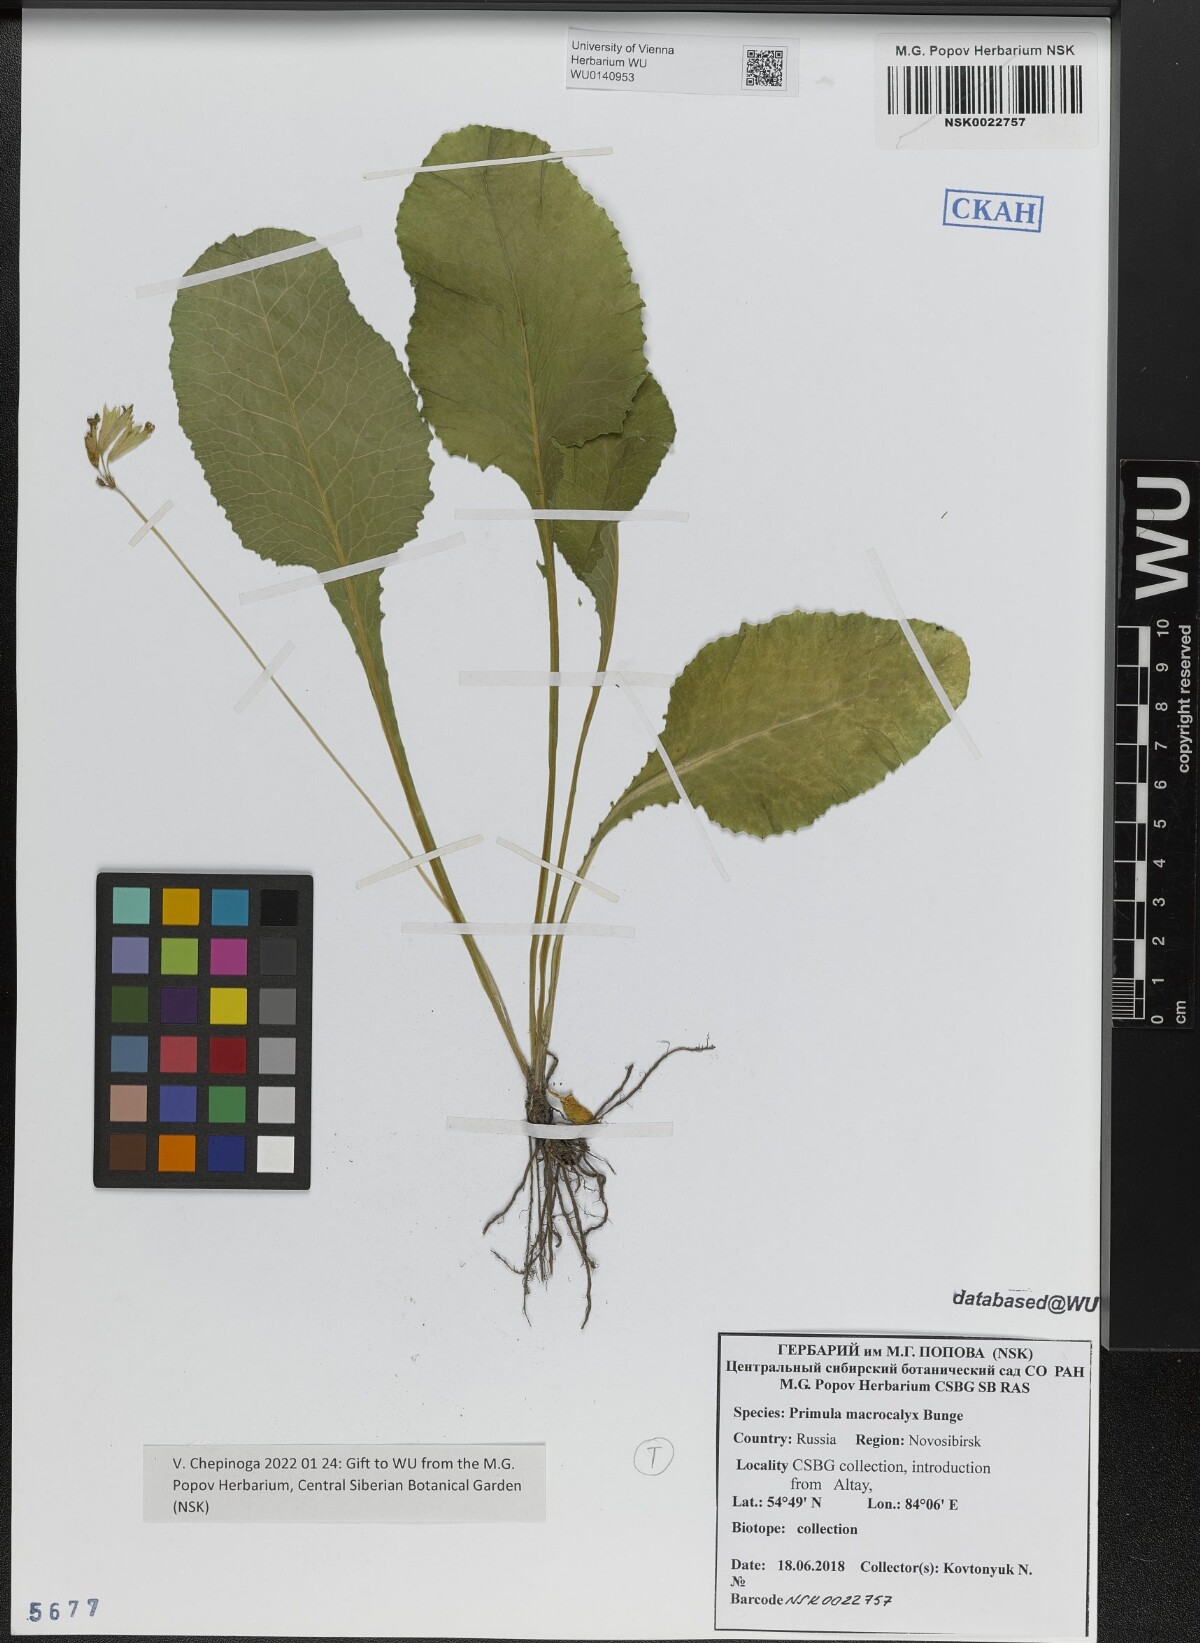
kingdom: Plantae
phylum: Tracheophyta
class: Magnoliopsida
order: Ericales
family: Primulaceae
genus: Primula
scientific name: Primula veris
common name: Cowslip
